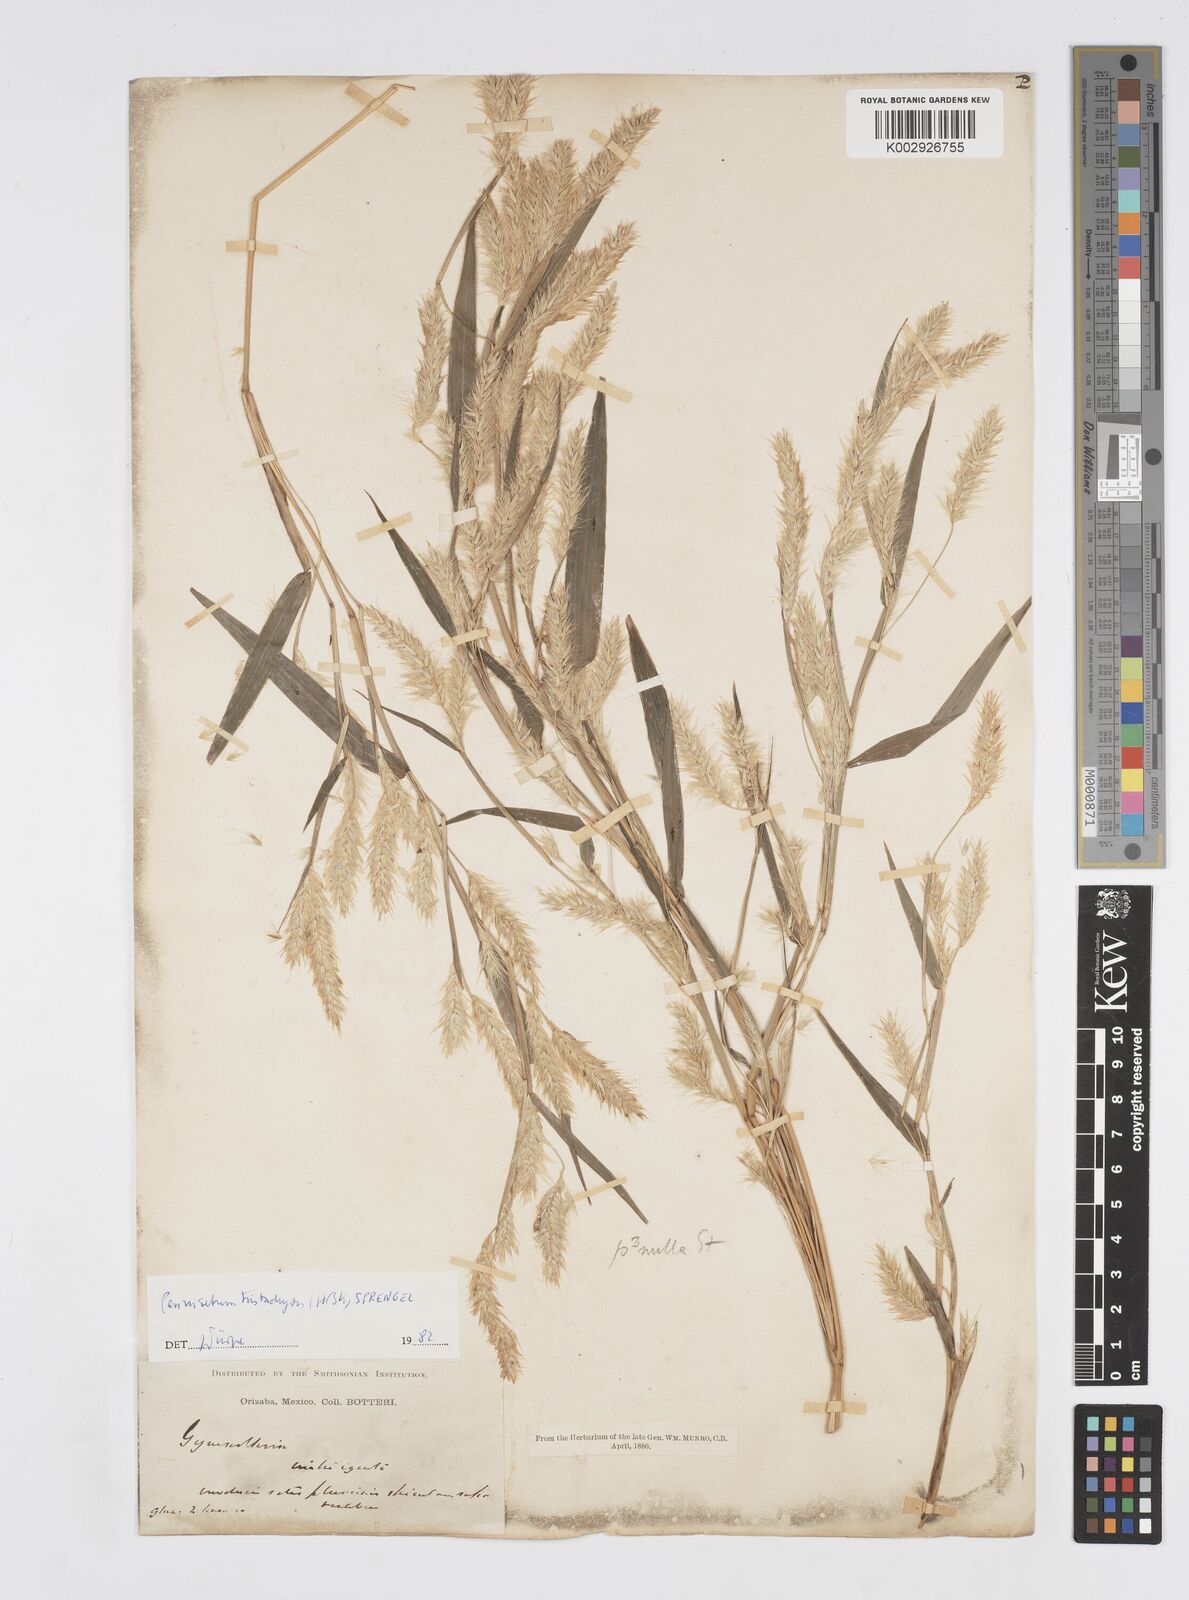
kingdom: Plantae
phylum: Tracheophyta
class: Liliopsida
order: Poales
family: Poaceae
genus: Cenchrus
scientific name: Cenchrus prolificus
